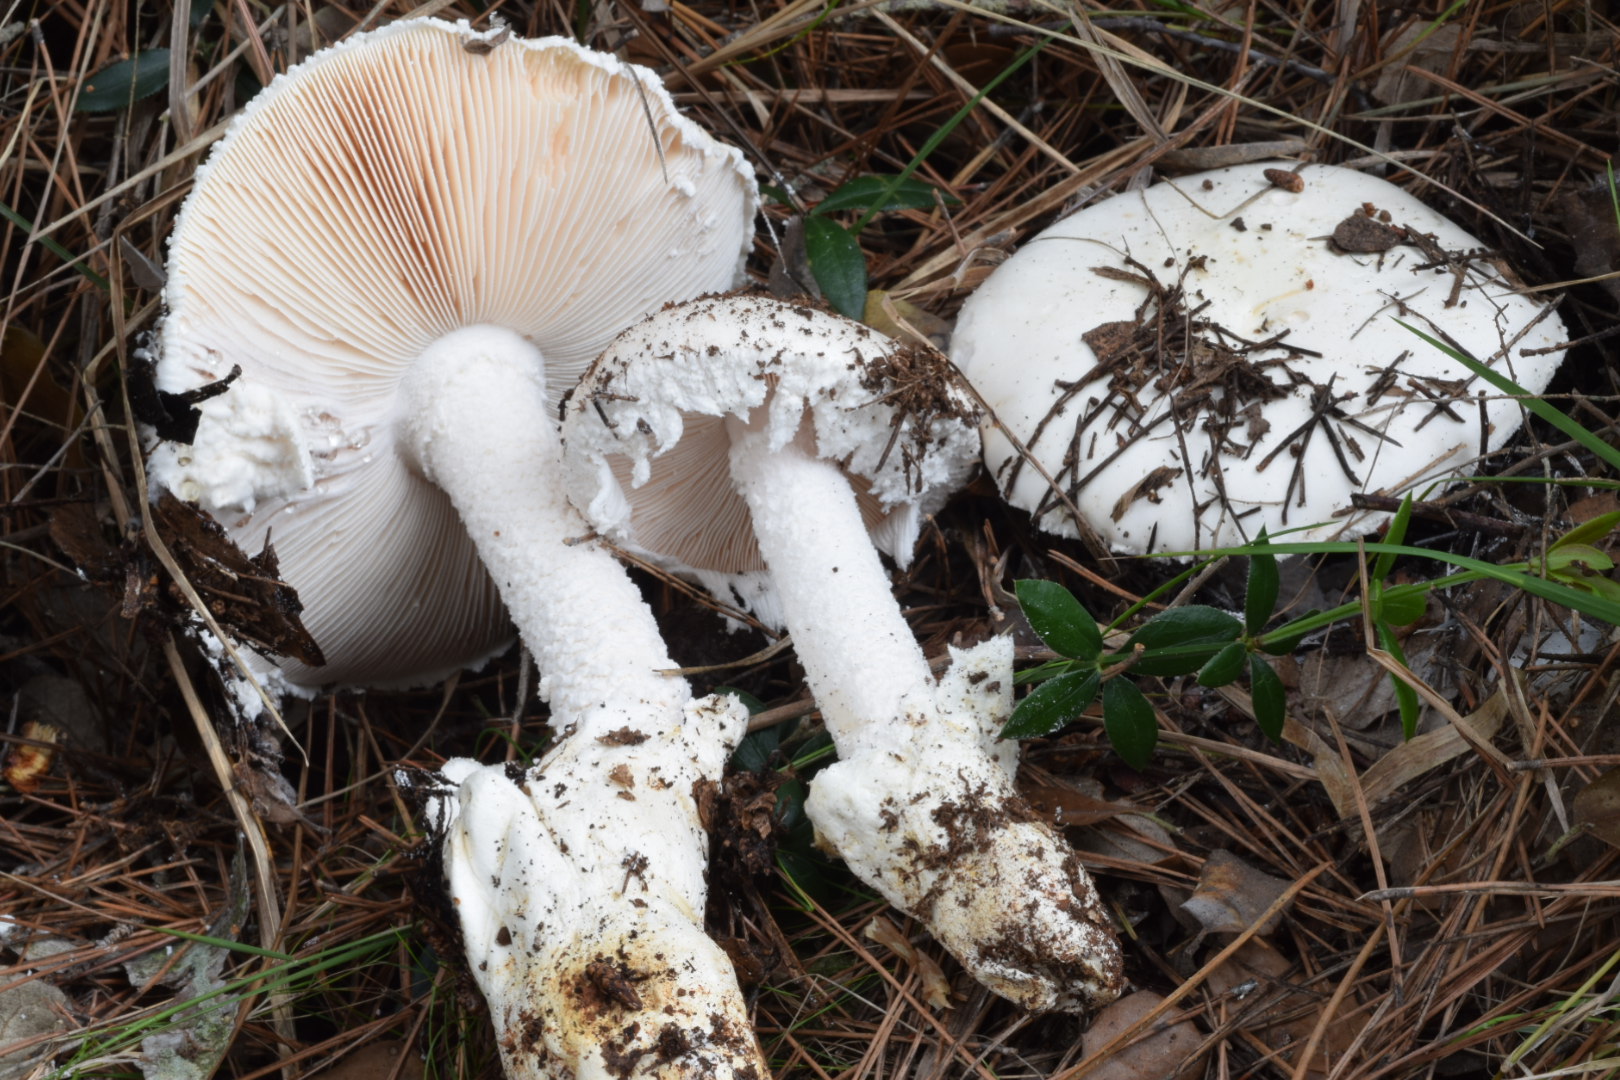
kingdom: Fungi
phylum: Basidiomycota
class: Agaricomycetes
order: Agaricales
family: Amanitaceae
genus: Amanita
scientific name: Amanita ovoidea
